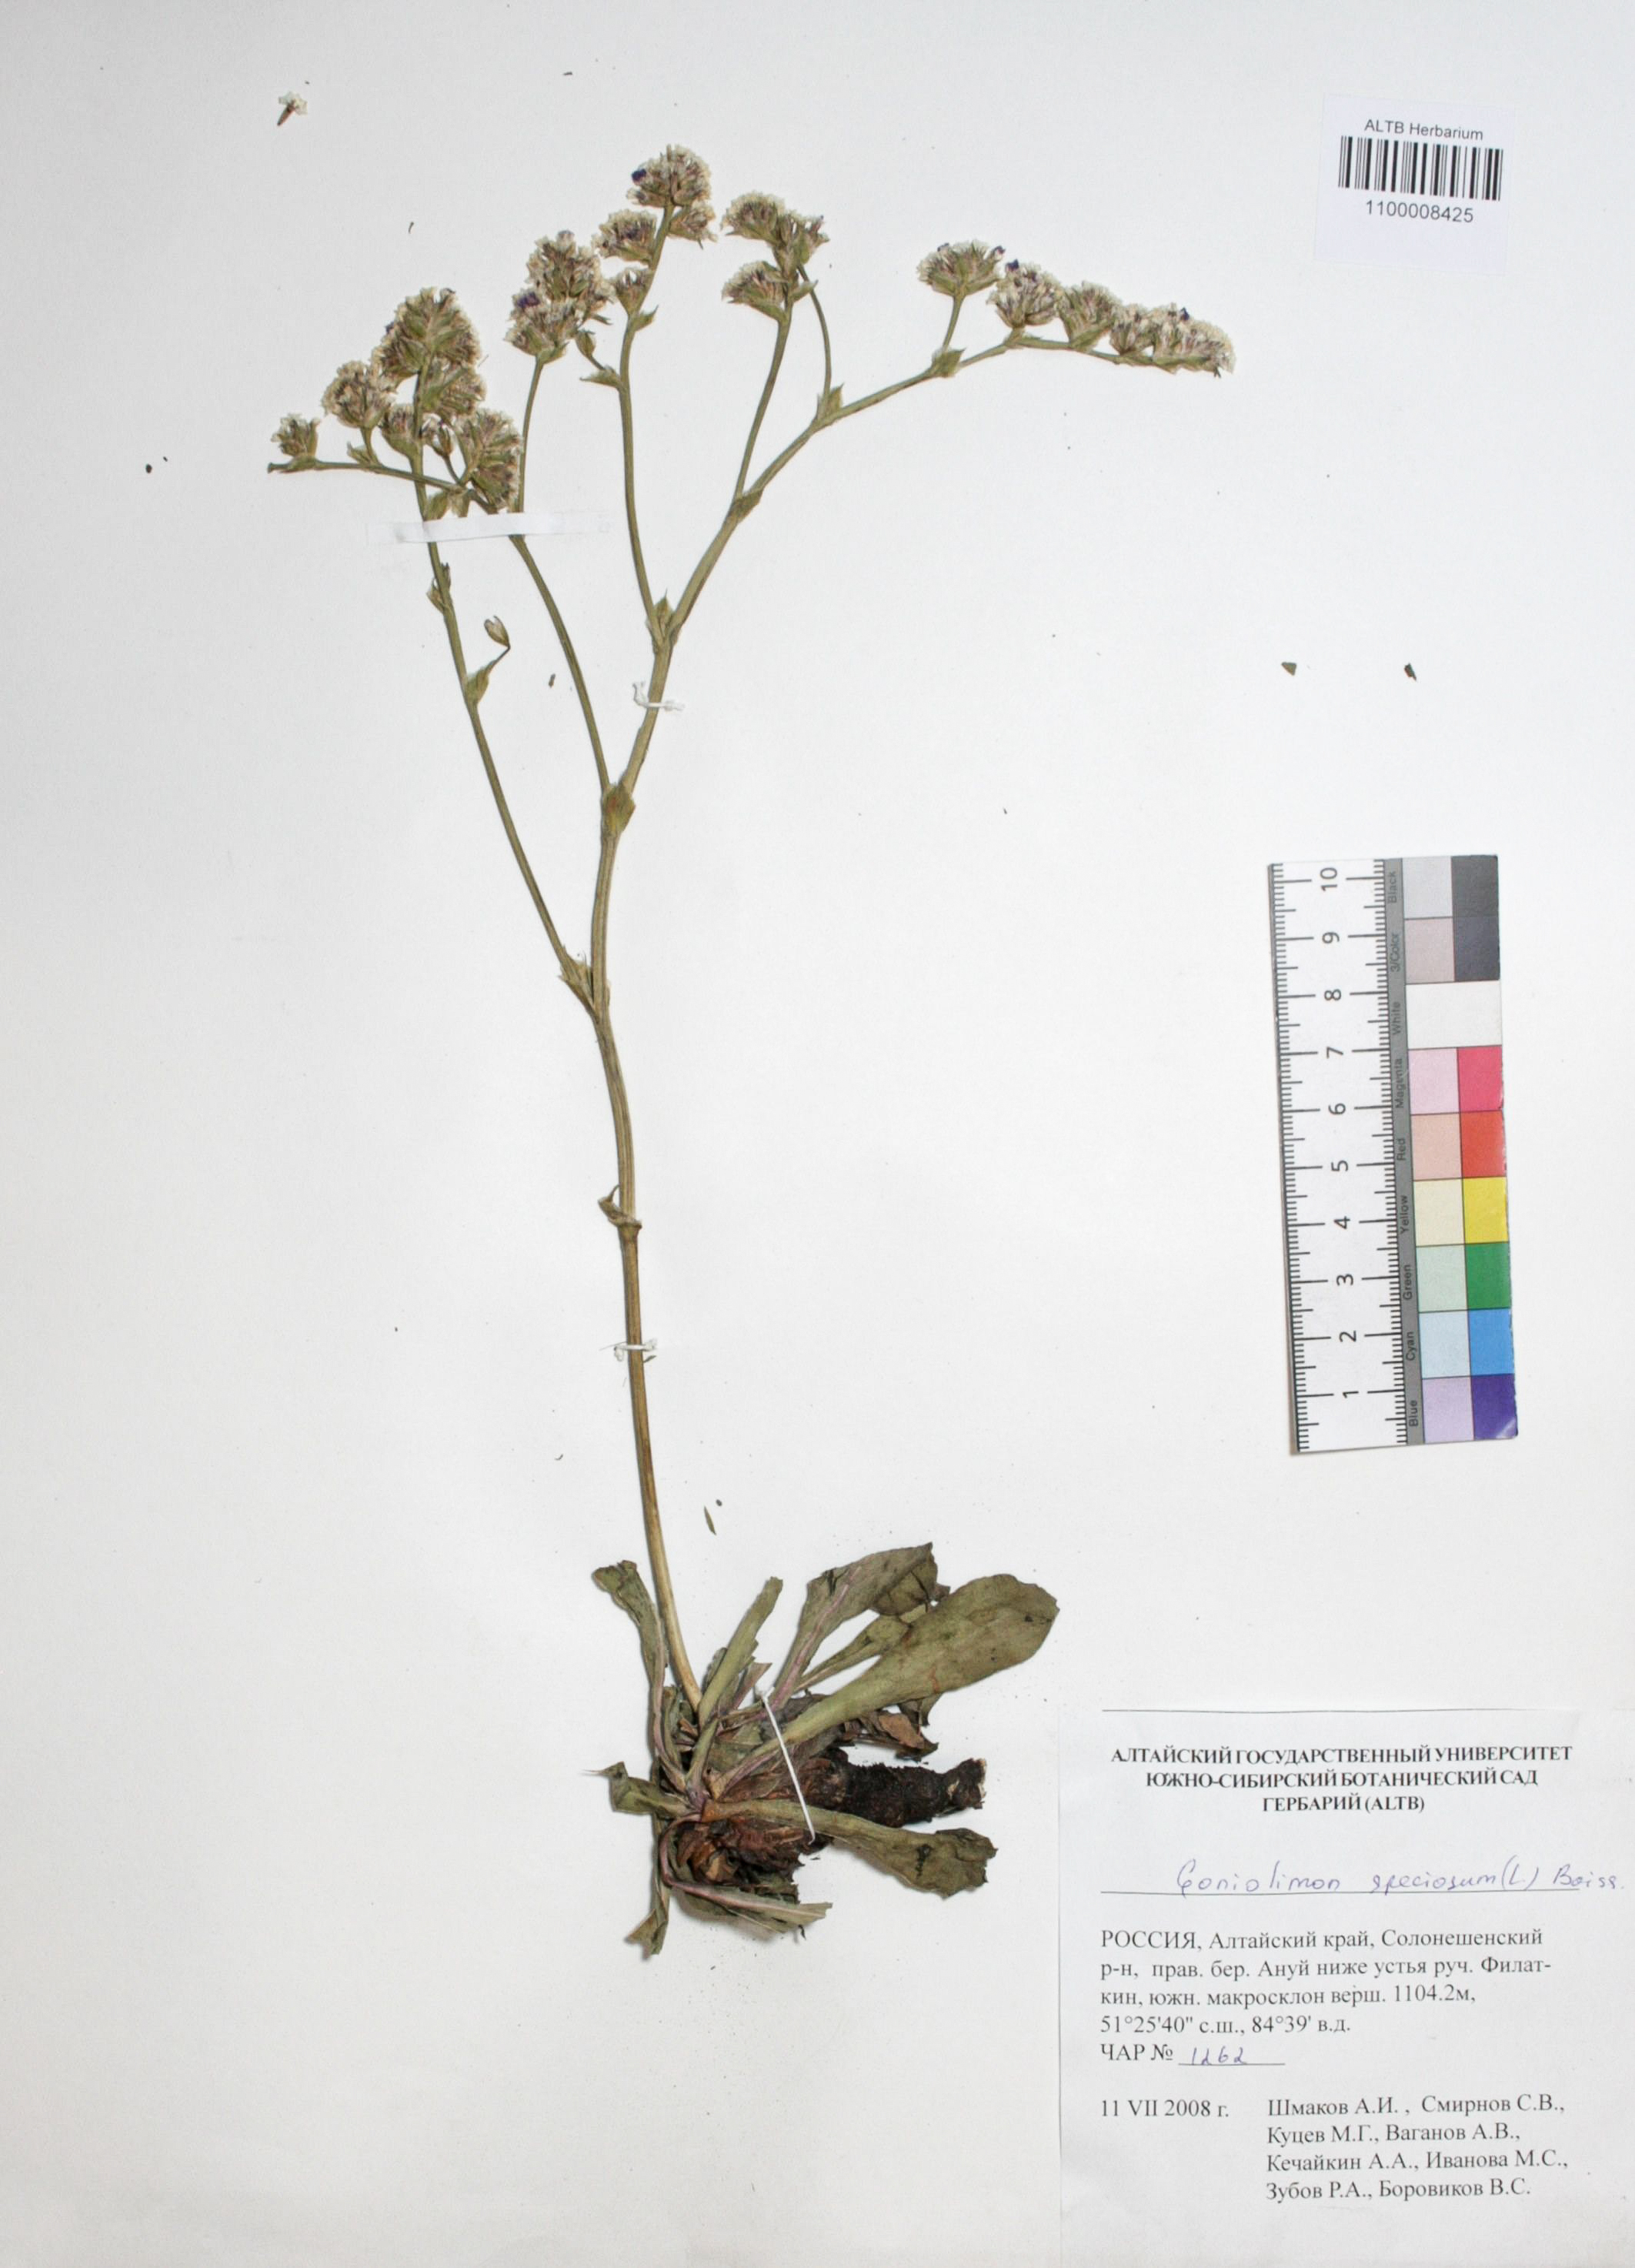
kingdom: Plantae
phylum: Tracheophyta
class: Magnoliopsida
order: Caryophyllales
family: Plumbaginaceae
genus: Goniolimon
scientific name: Goniolimon speciosum
